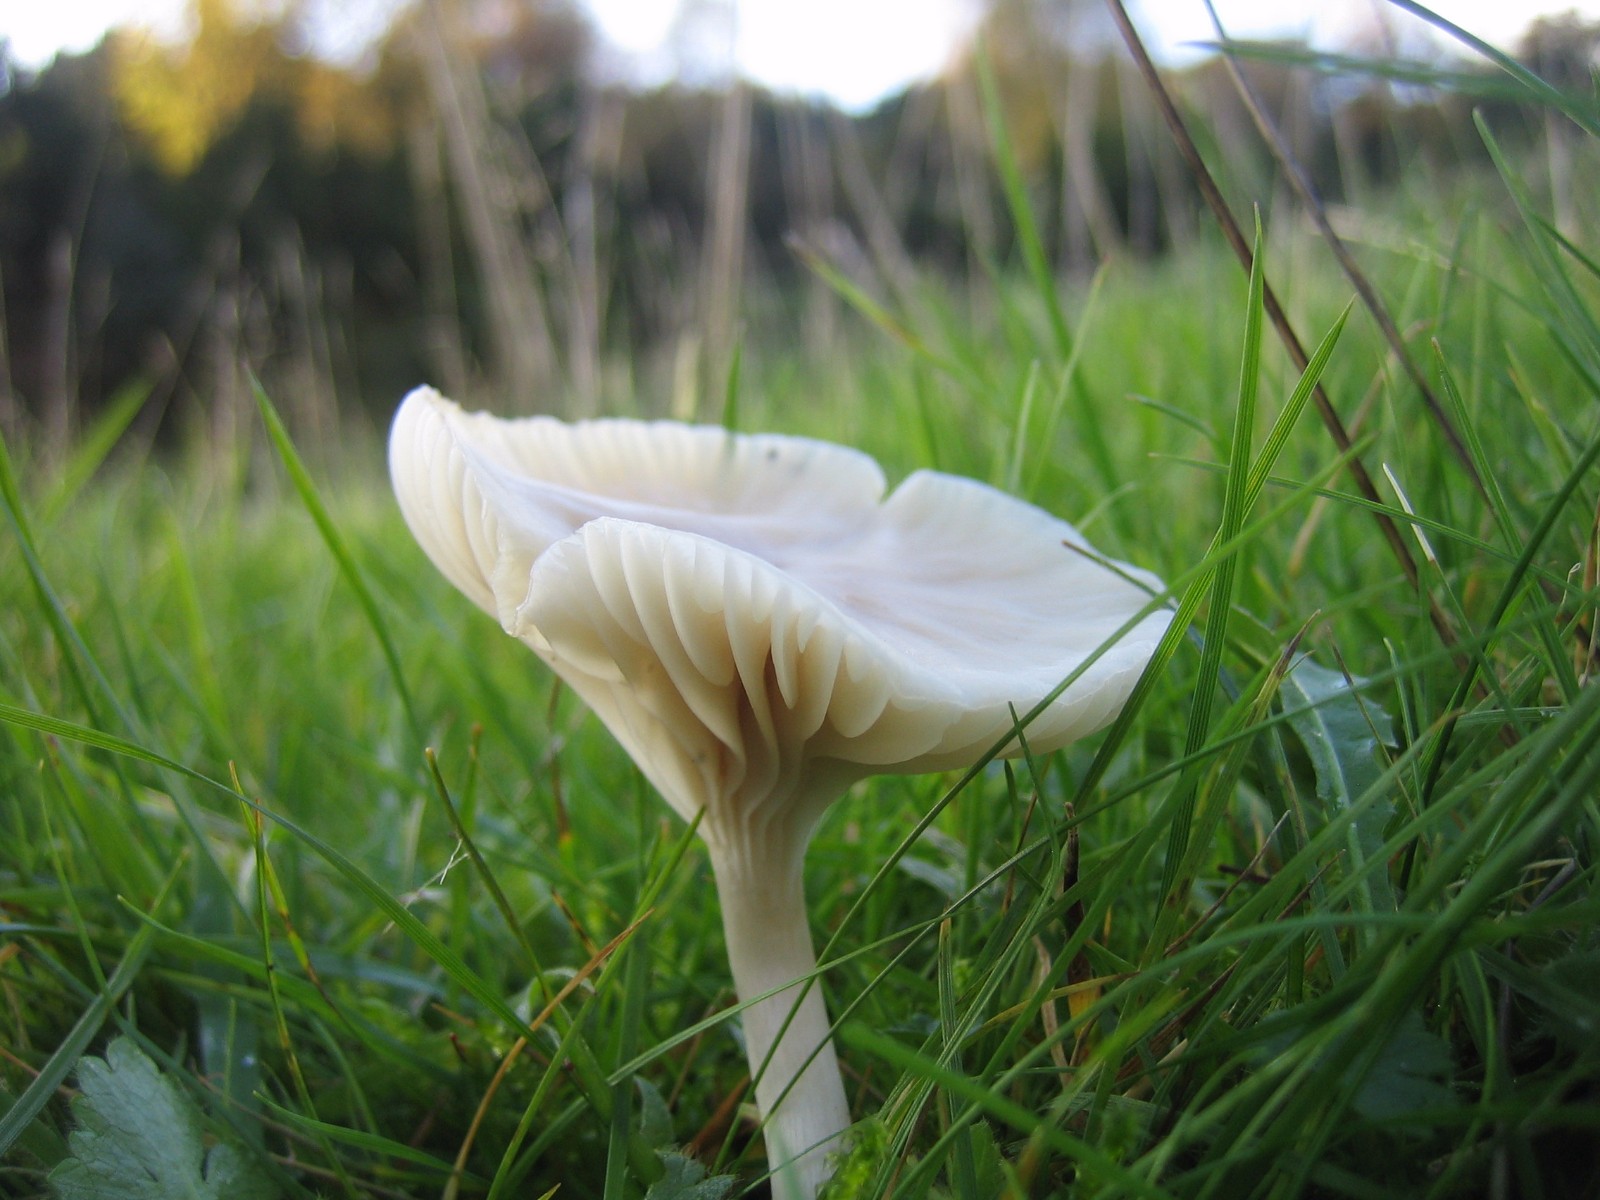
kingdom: Fungi
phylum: Basidiomycota
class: Agaricomycetes
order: Agaricales
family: Hygrophoraceae
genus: Cuphophyllus
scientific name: Cuphophyllus virgineus
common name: snehvid vokshat
